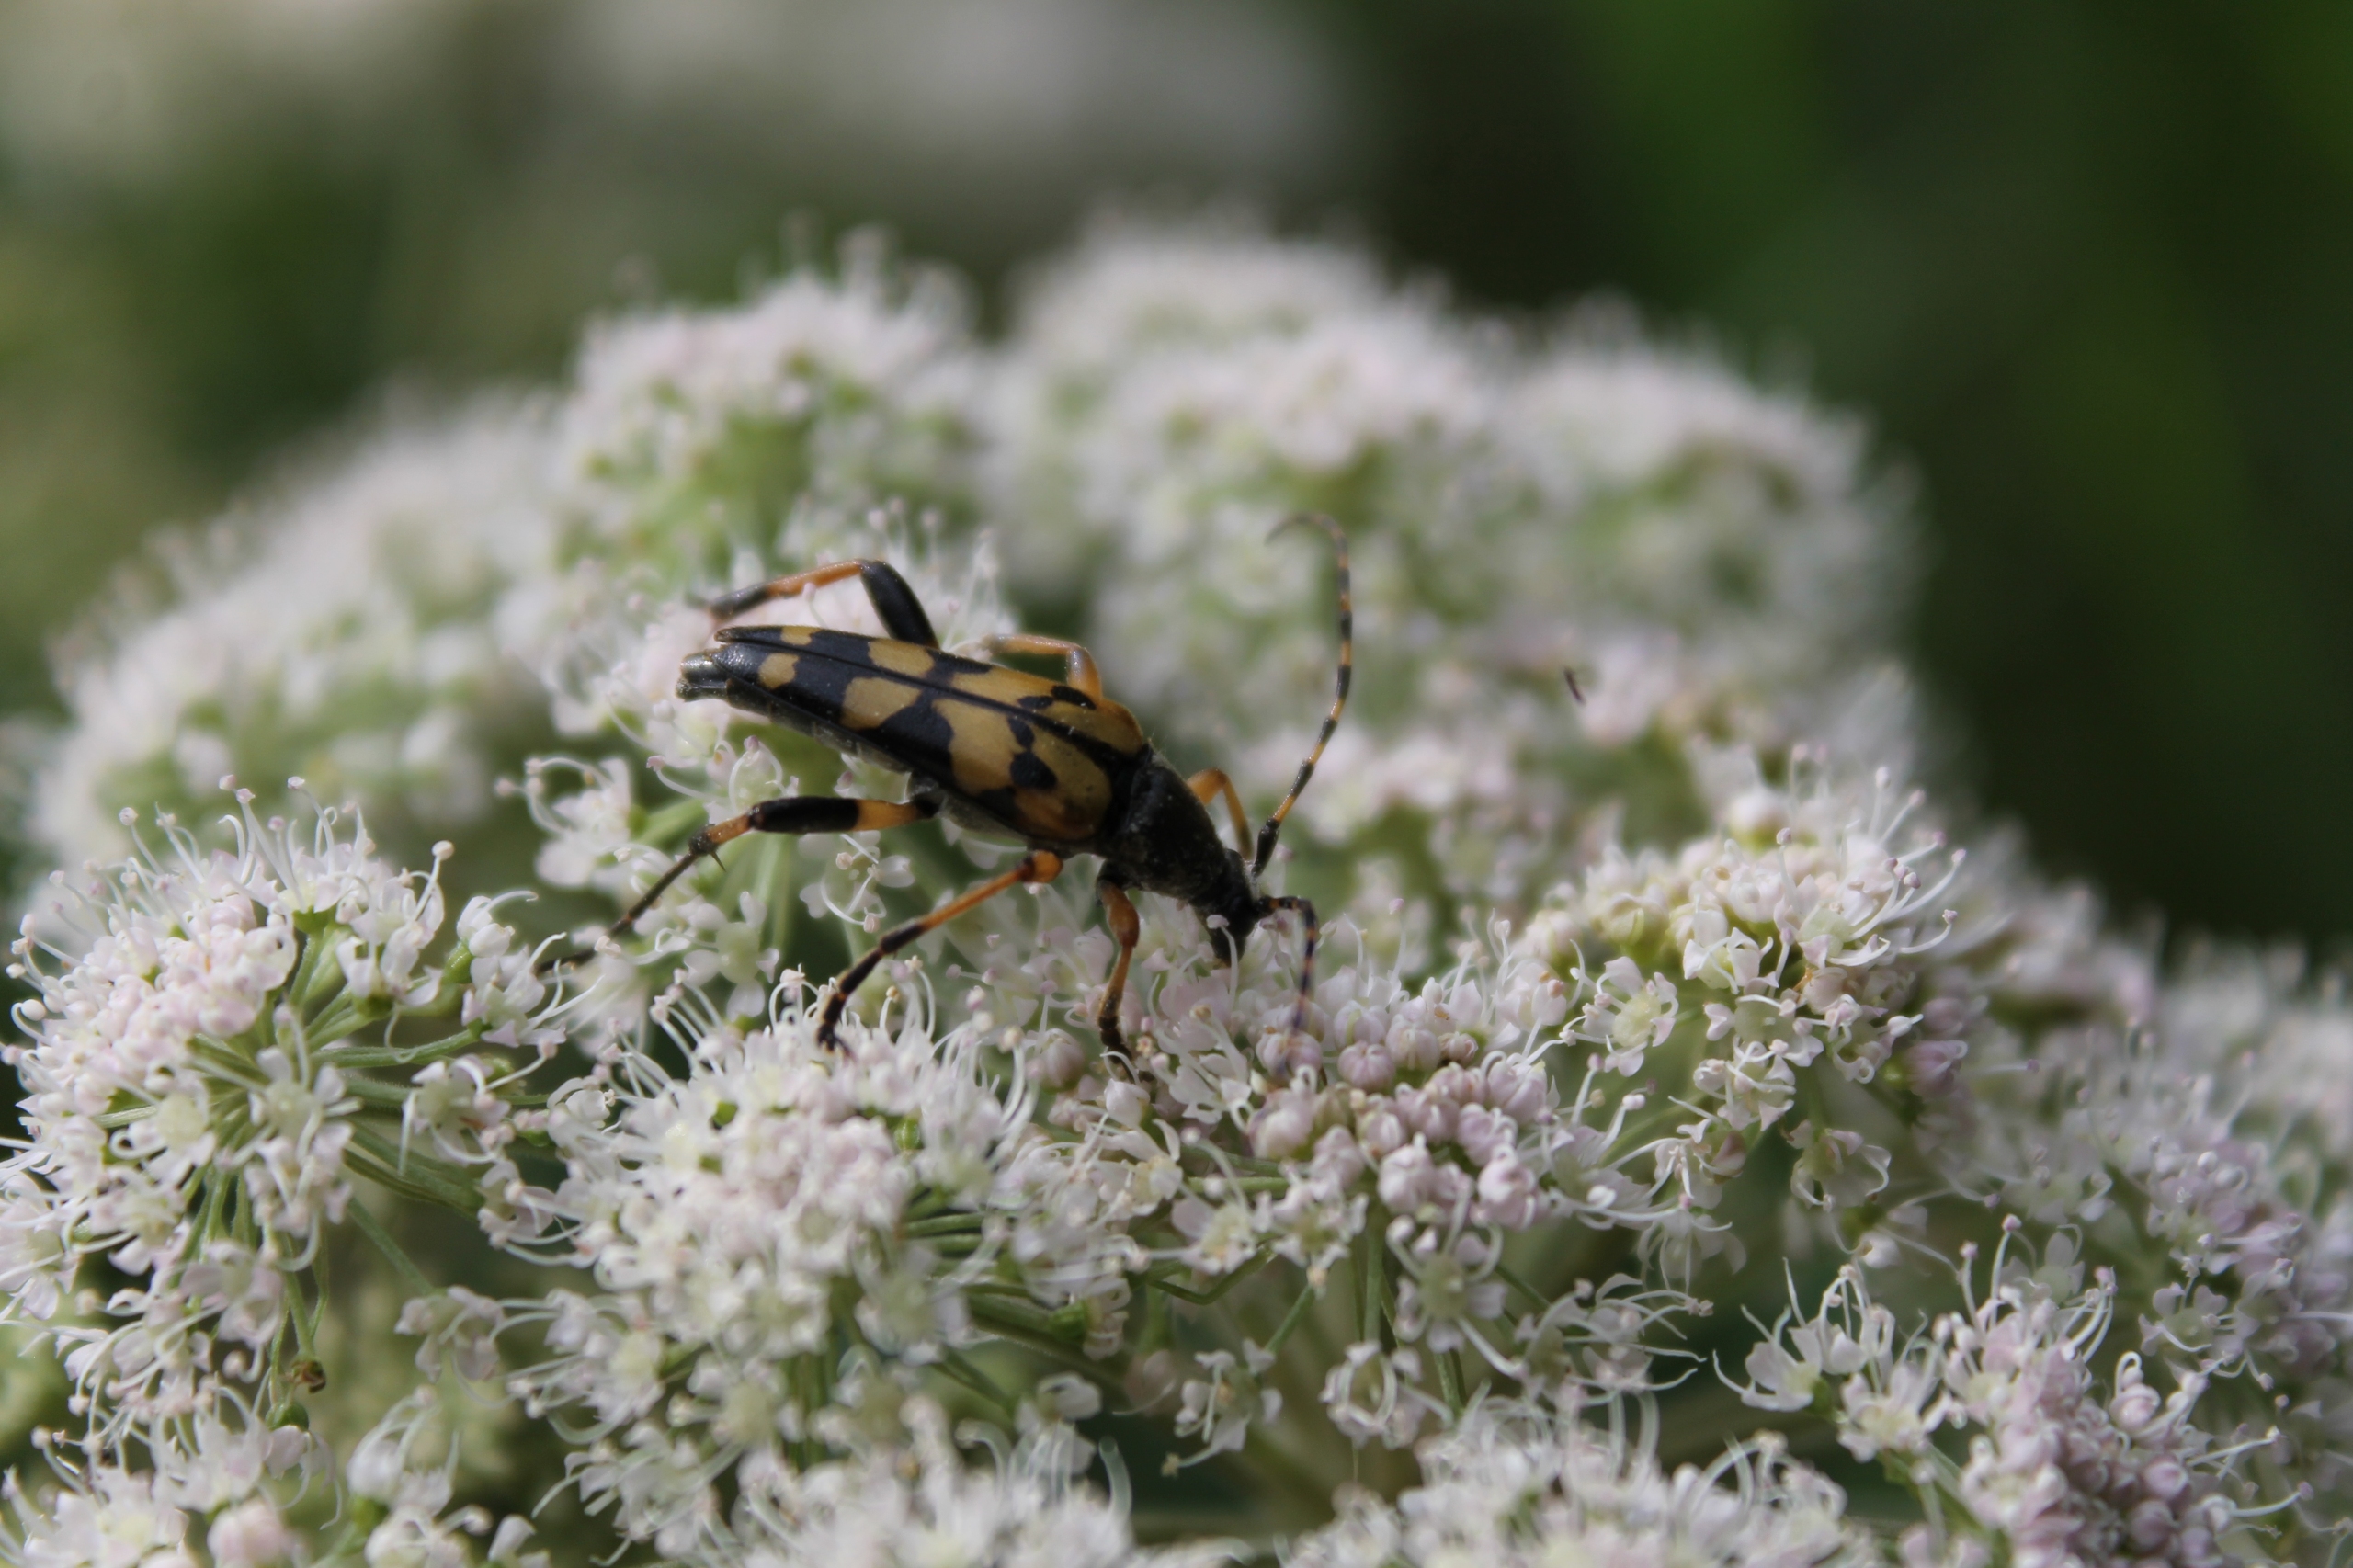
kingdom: Animalia
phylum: Arthropoda
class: Insecta
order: Coleoptera
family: Cerambycidae
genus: Rutpela
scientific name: Rutpela maculata
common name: Sydlig blomsterbuk
